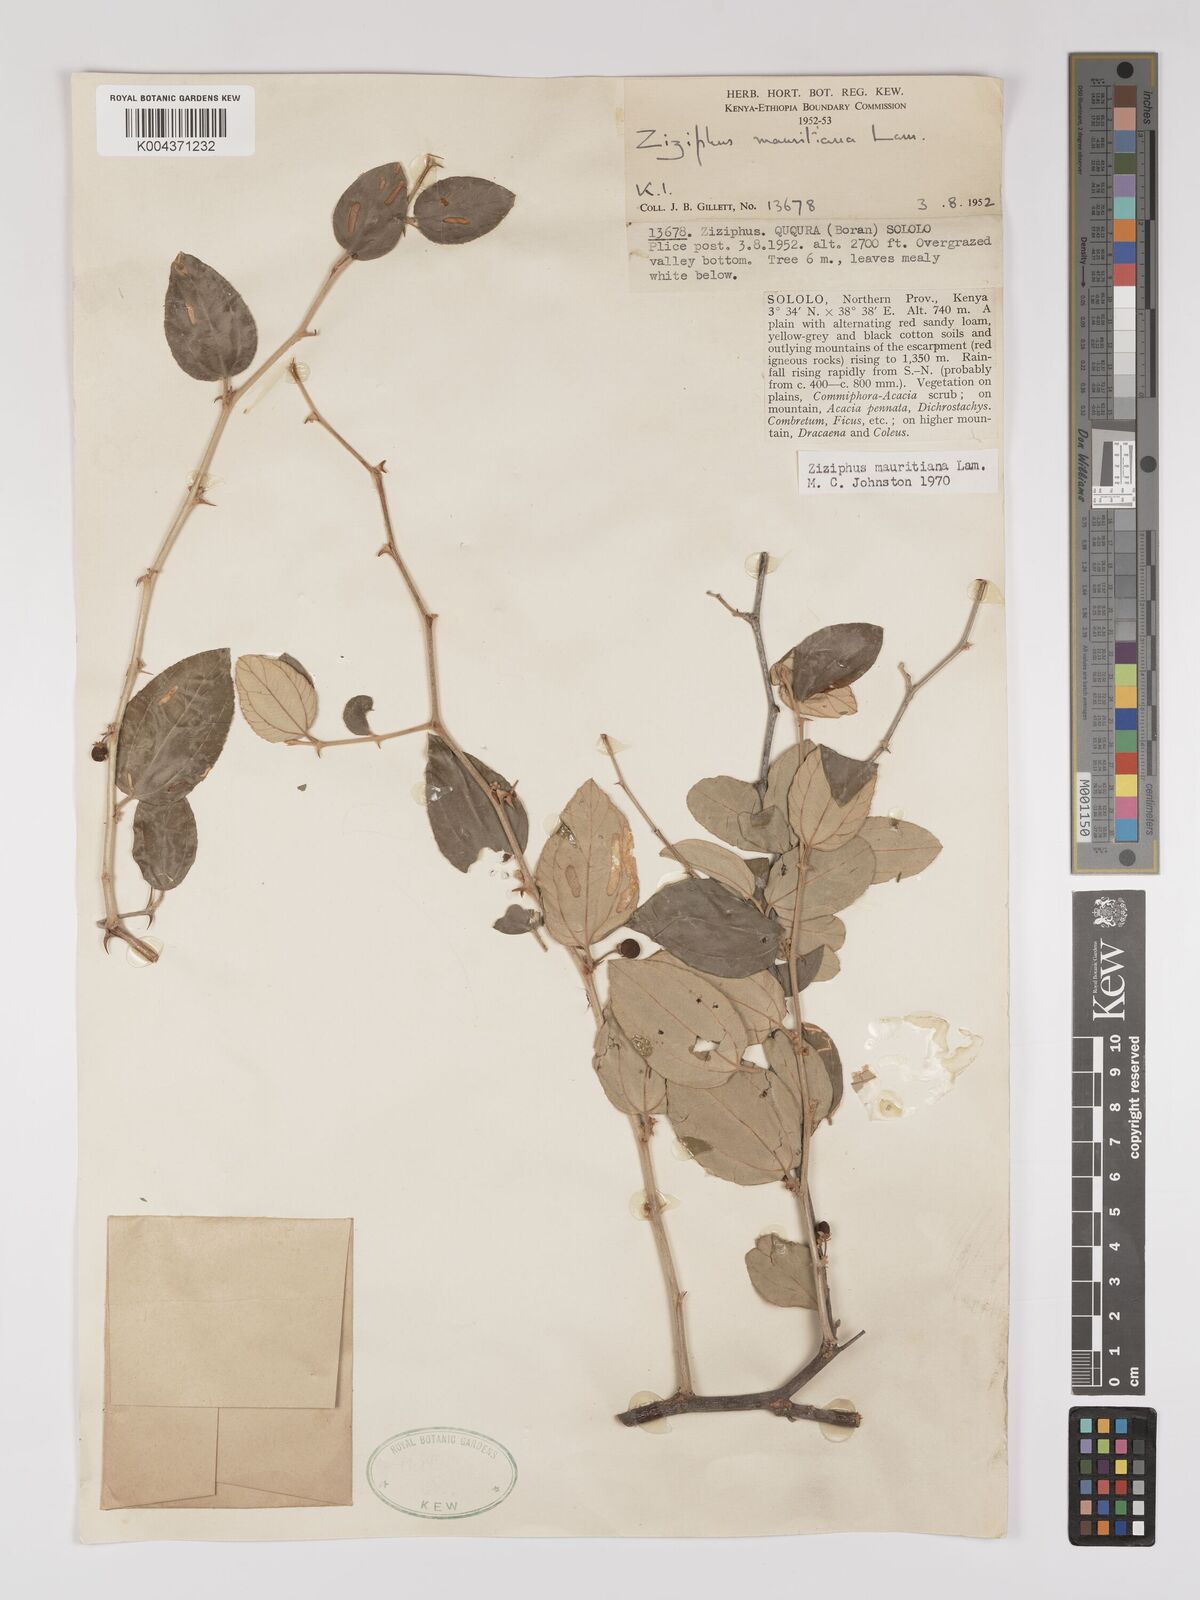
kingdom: Plantae
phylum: Tracheophyta
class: Magnoliopsida
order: Rosales
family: Rhamnaceae
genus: Ziziphus
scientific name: Ziziphus mauritiana
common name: Indian jujube
